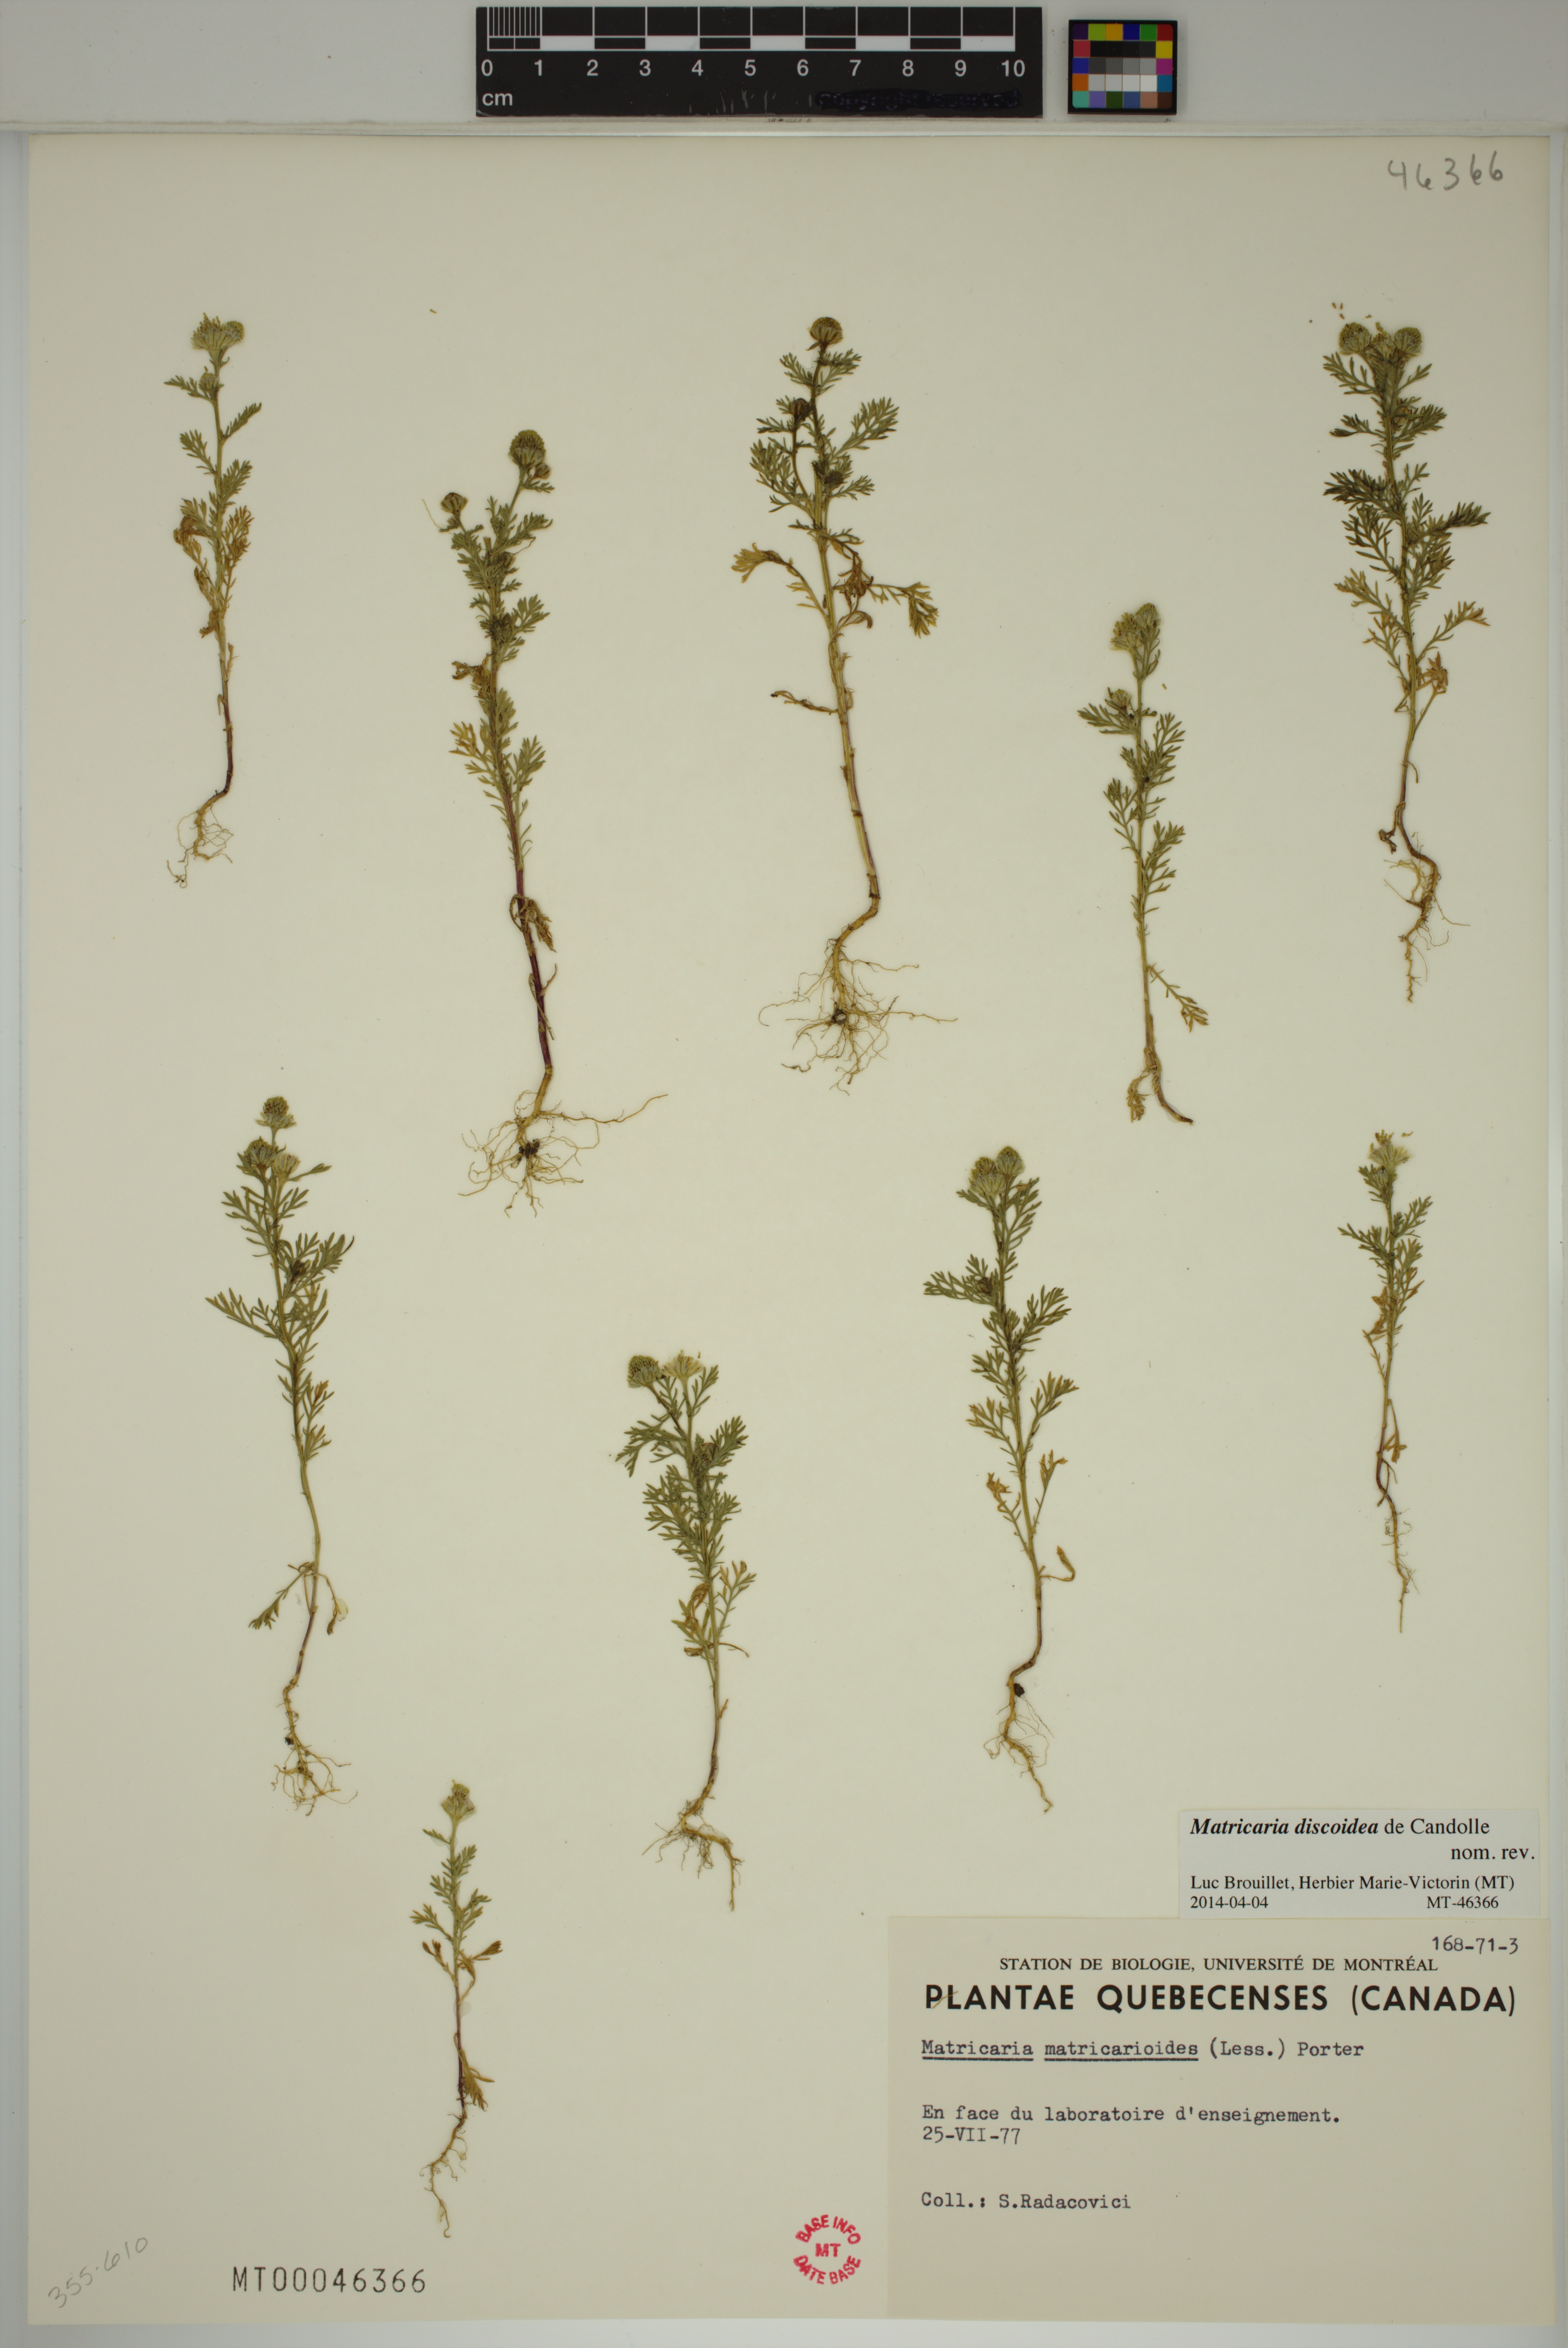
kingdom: Plantae
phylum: Tracheophyta
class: Magnoliopsida
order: Asterales
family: Asteraceae
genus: Matricaria
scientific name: Matricaria discoidea
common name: Disc mayweed
